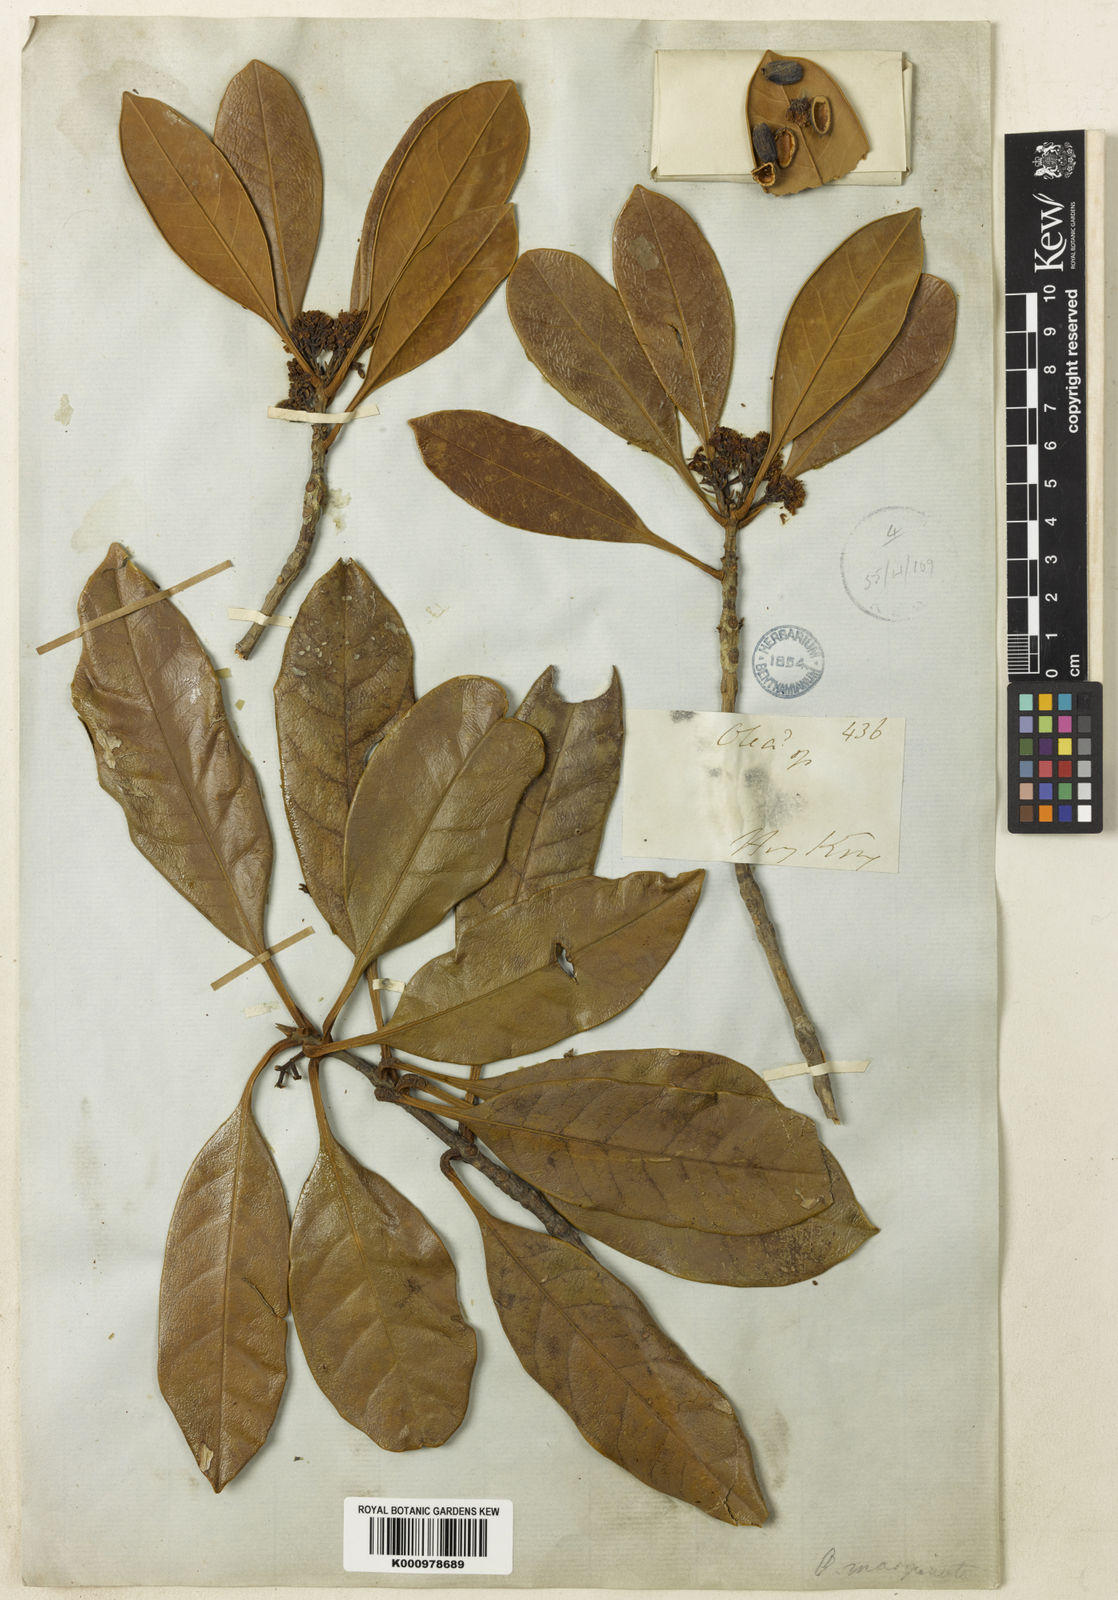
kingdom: Plantae
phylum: Tracheophyta
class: Magnoliopsida
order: Lamiales
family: Oleaceae
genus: Chengiodendron
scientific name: Chengiodendron matsumuranum
